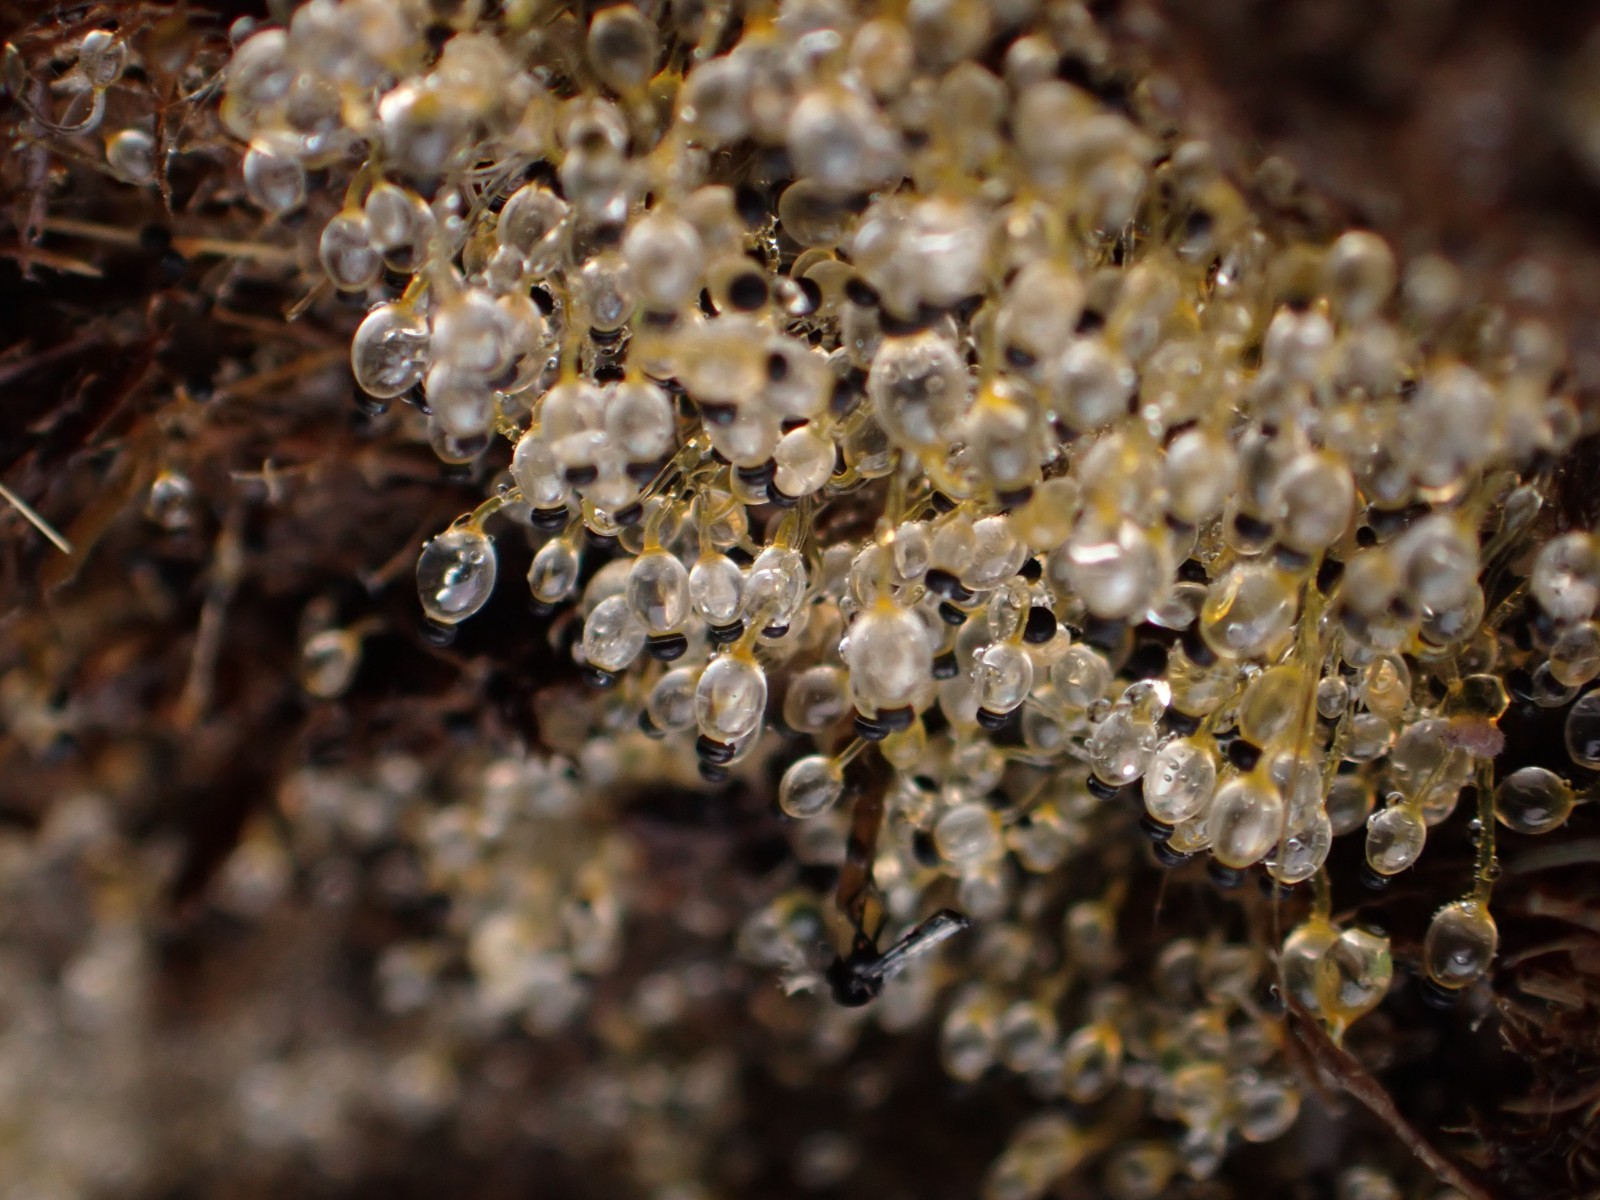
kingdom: Fungi
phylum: Mucoromycota
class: Mucoromycetes
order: Mucorales
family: Pilobolaceae
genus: Pilobolus
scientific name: Pilobolus
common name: boldkaster
